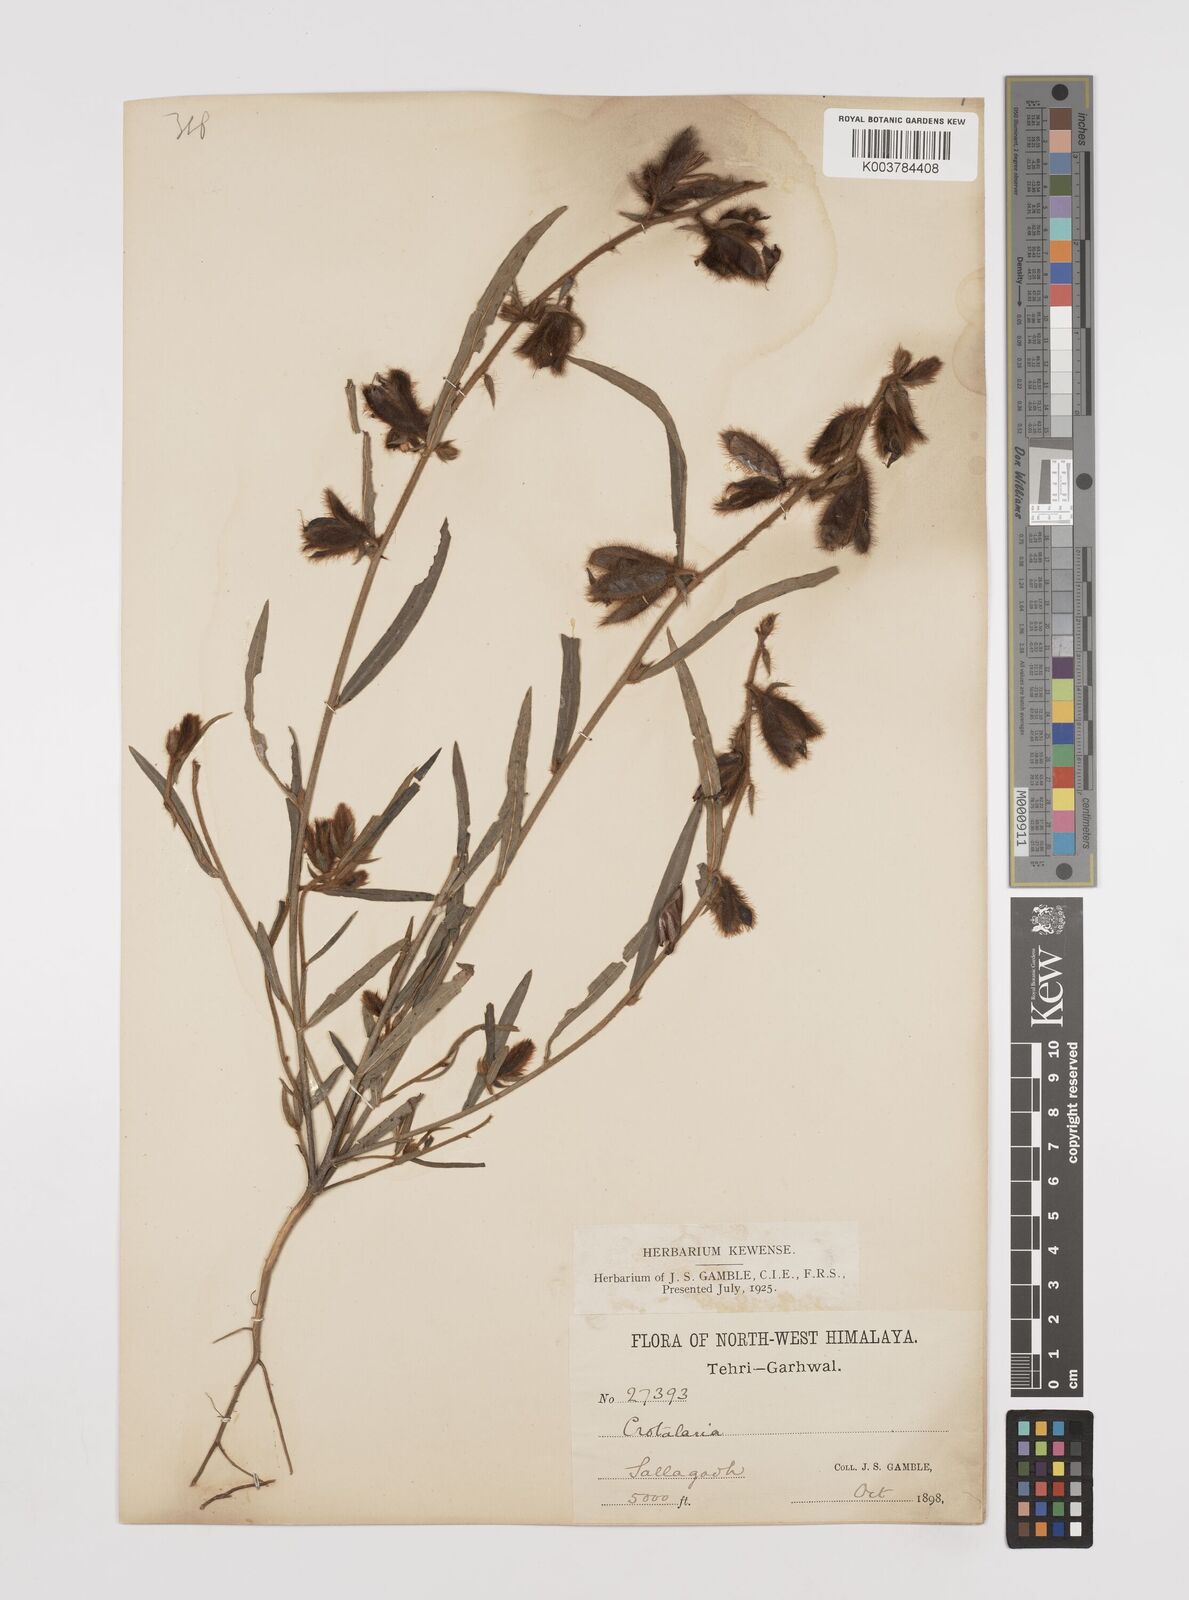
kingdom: Plantae
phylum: Tracheophyta
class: Magnoliopsida
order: Fabales
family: Fabaceae
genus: Crotalaria
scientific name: Crotalaria calycina
